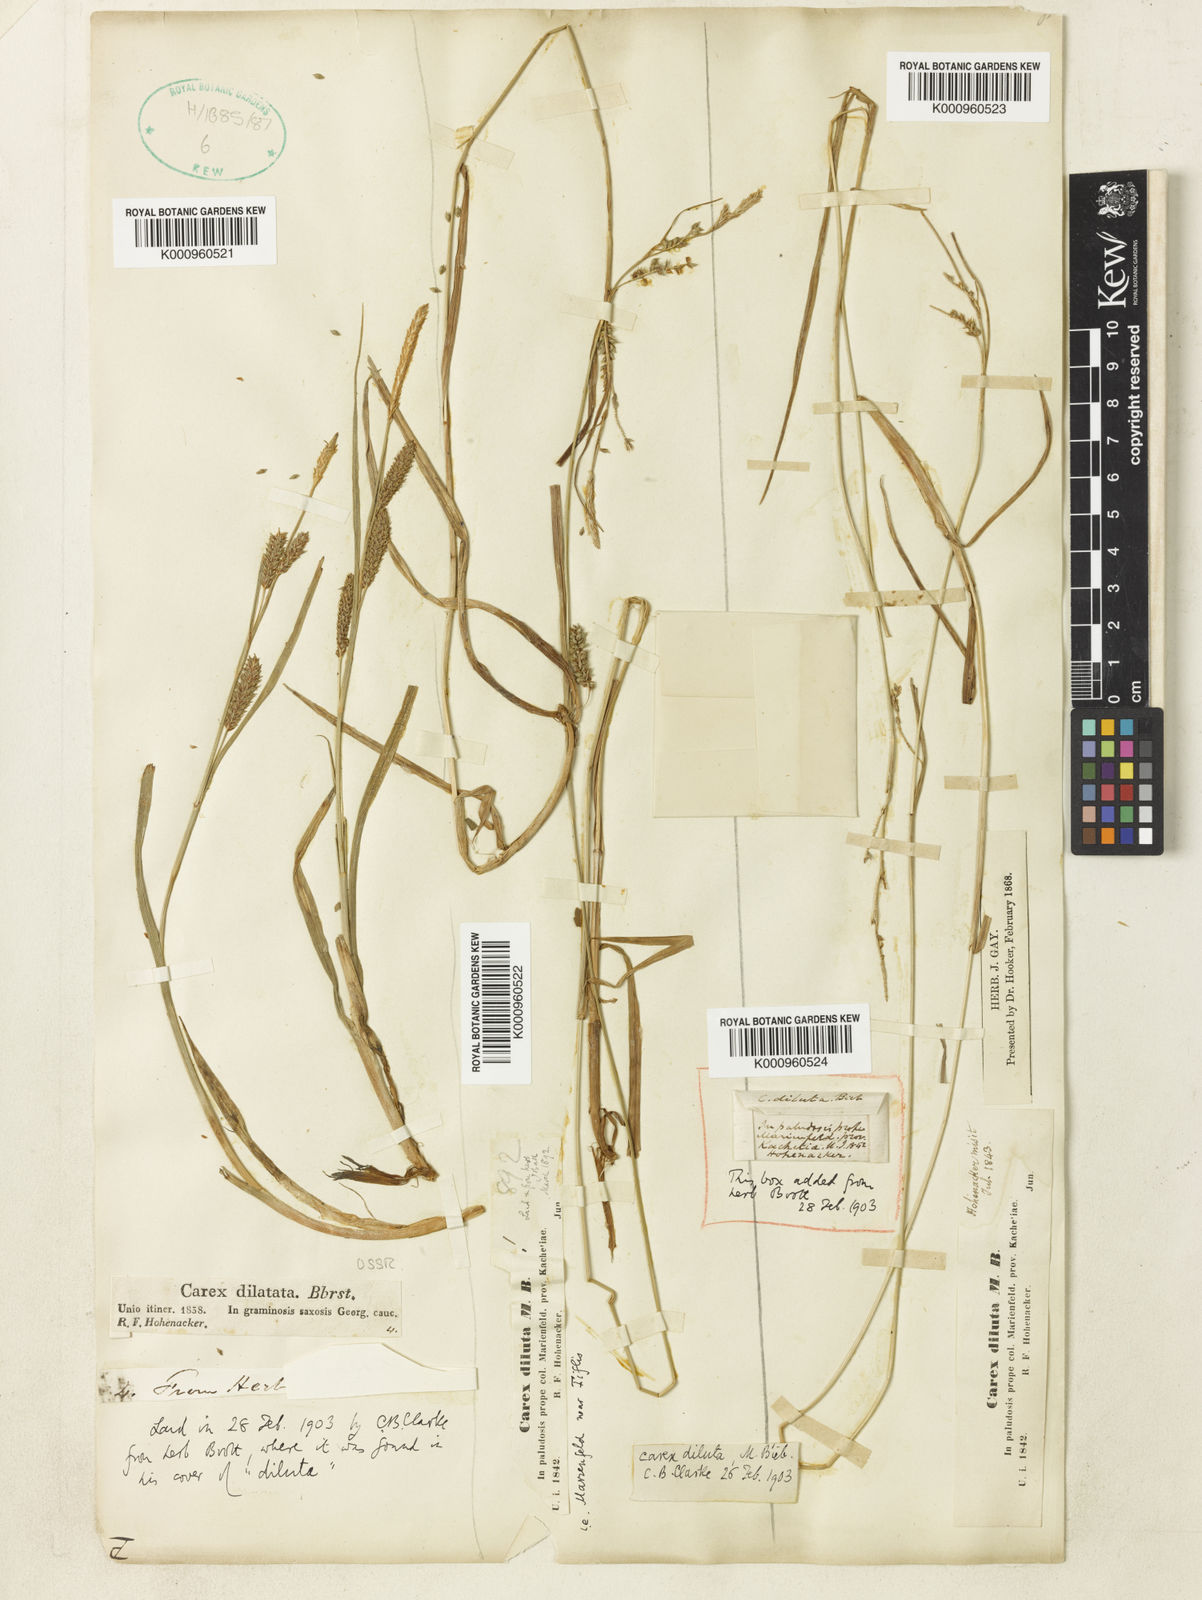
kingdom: Plantae
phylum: Tracheophyta
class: Liliopsida
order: Poales
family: Cyperaceae
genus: Carex
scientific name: Carex diluta
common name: Sedge
